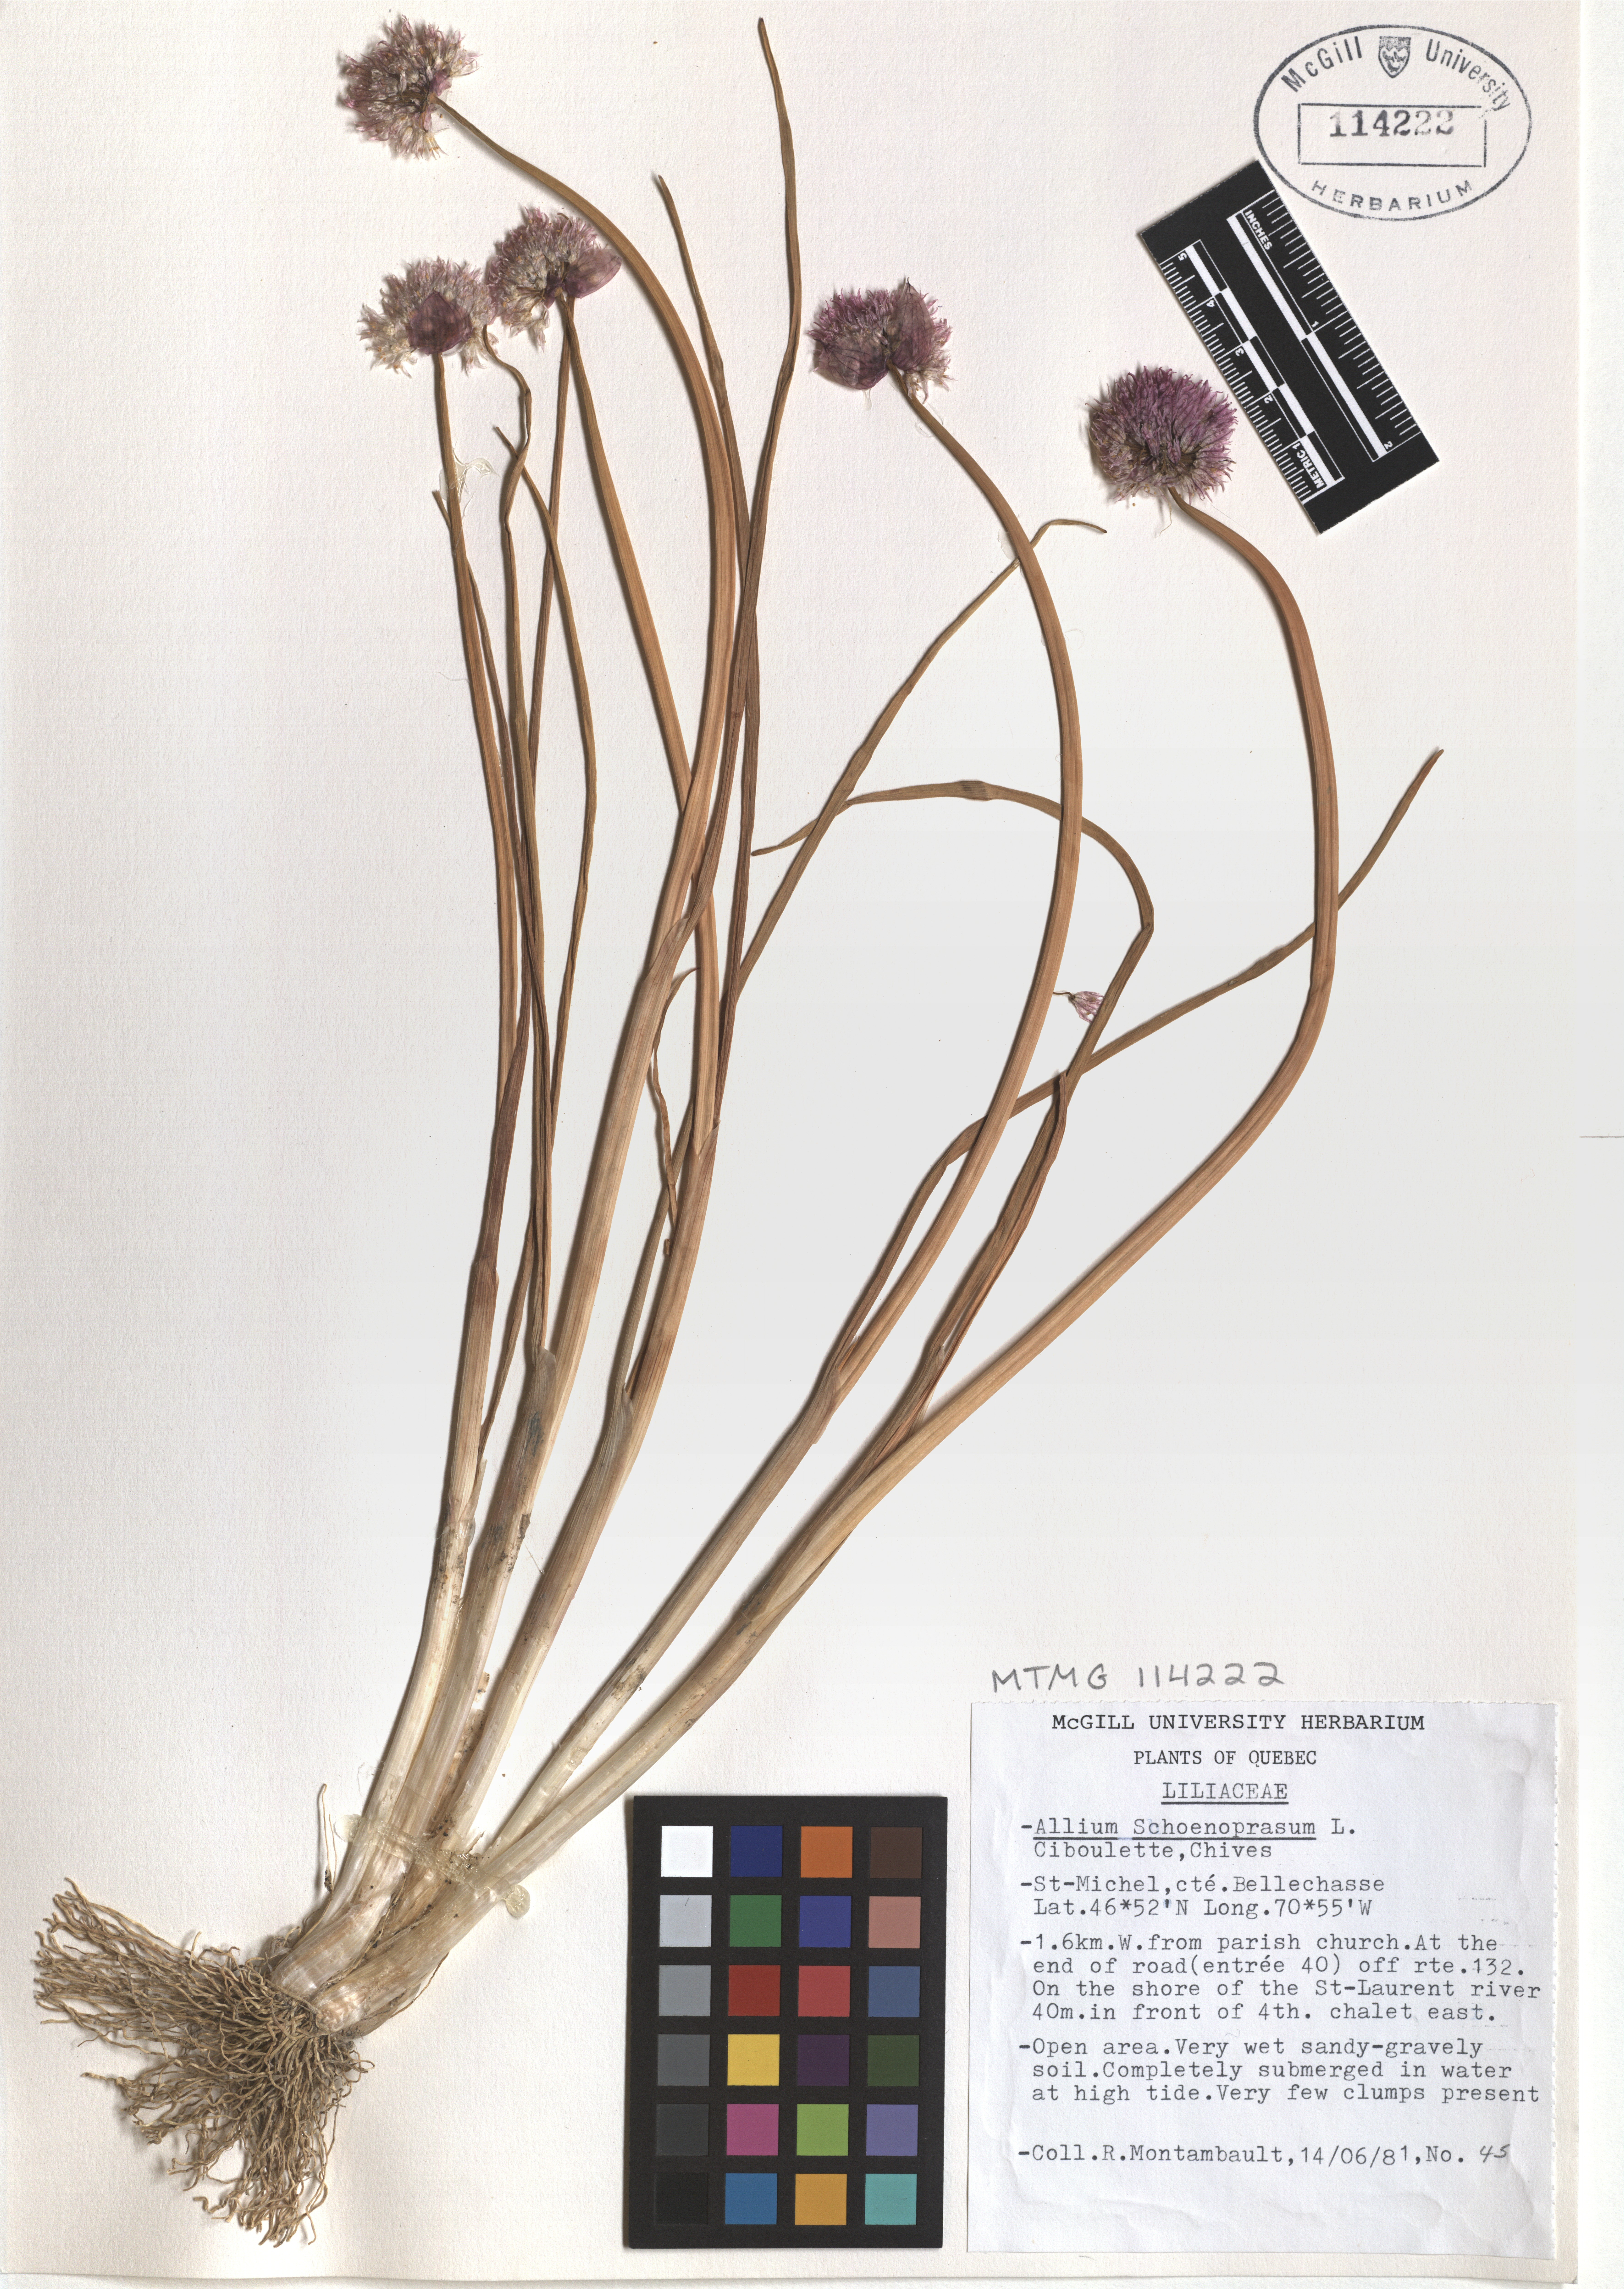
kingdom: Plantae
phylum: Tracheophyta
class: Liliopsida
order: Asparagales
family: Amaryllidaceae
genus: Allium
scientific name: Allium schoenoprasum
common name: Chives
